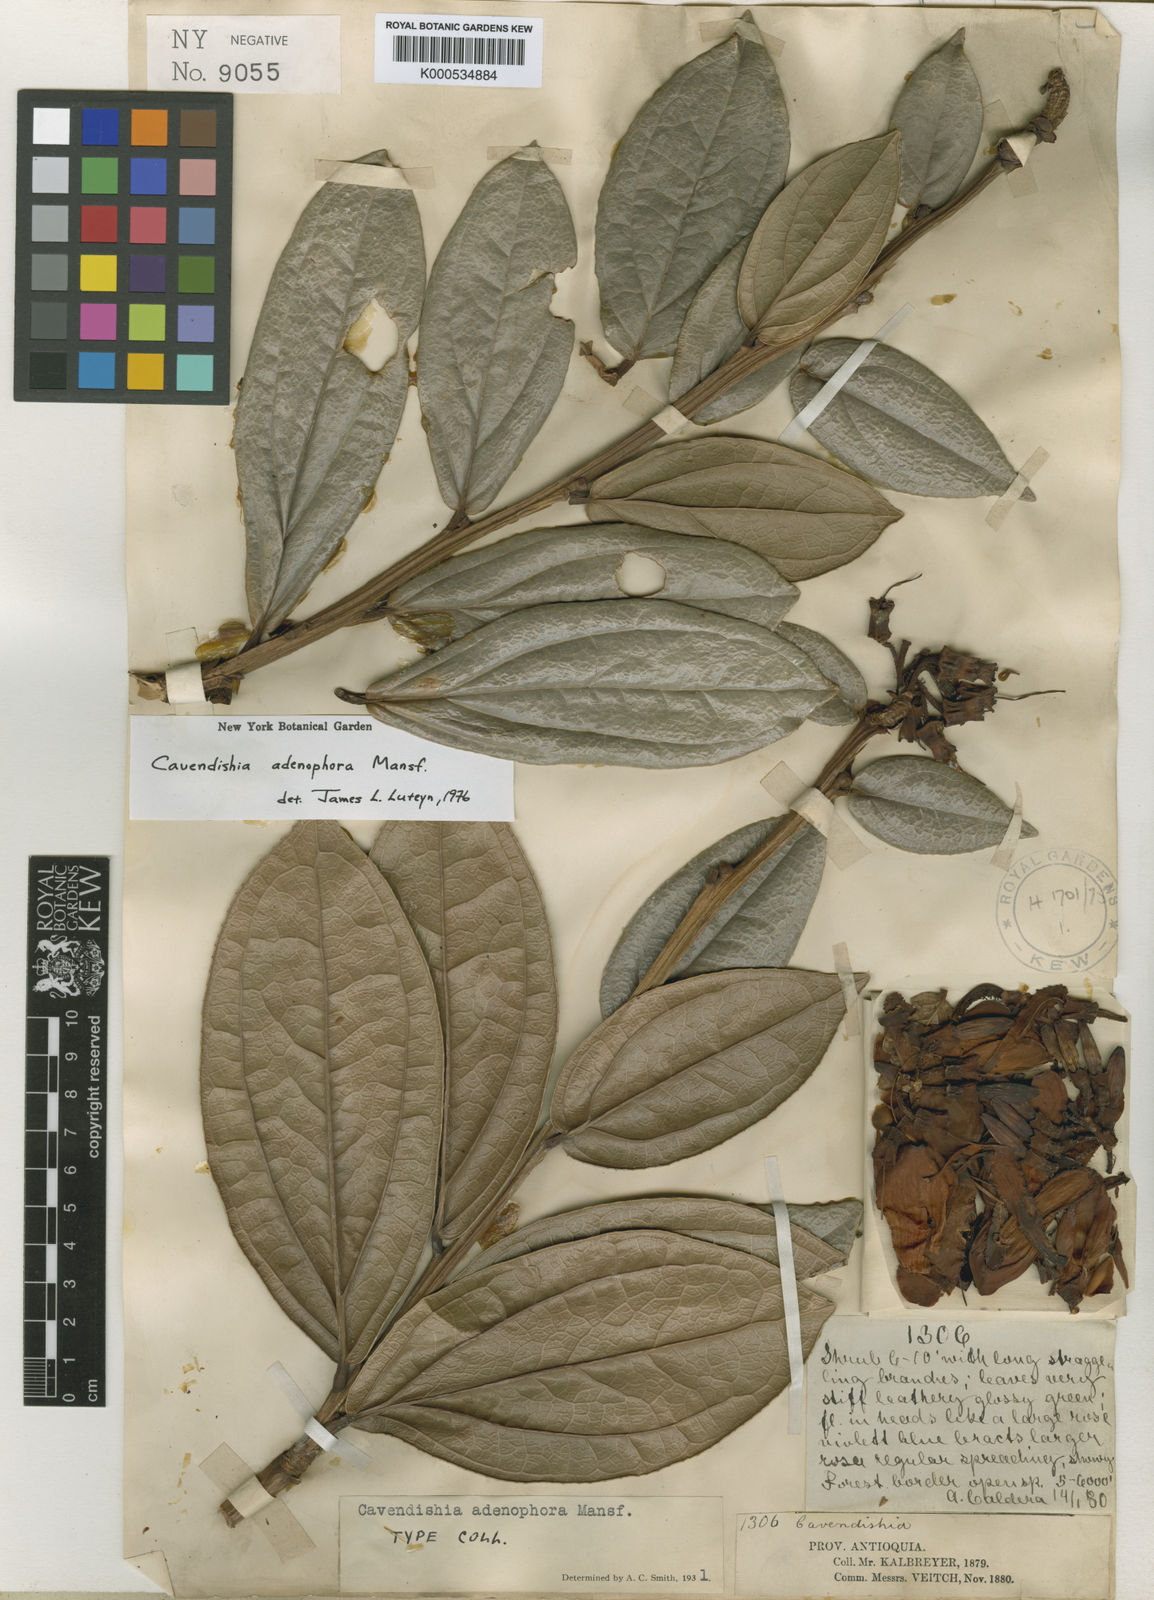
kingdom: Plantae
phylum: Tracheophyta
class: Magnoliopsida
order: Ericales
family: Ericaceae
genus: Cavendishia
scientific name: Cavendishia adenophora
